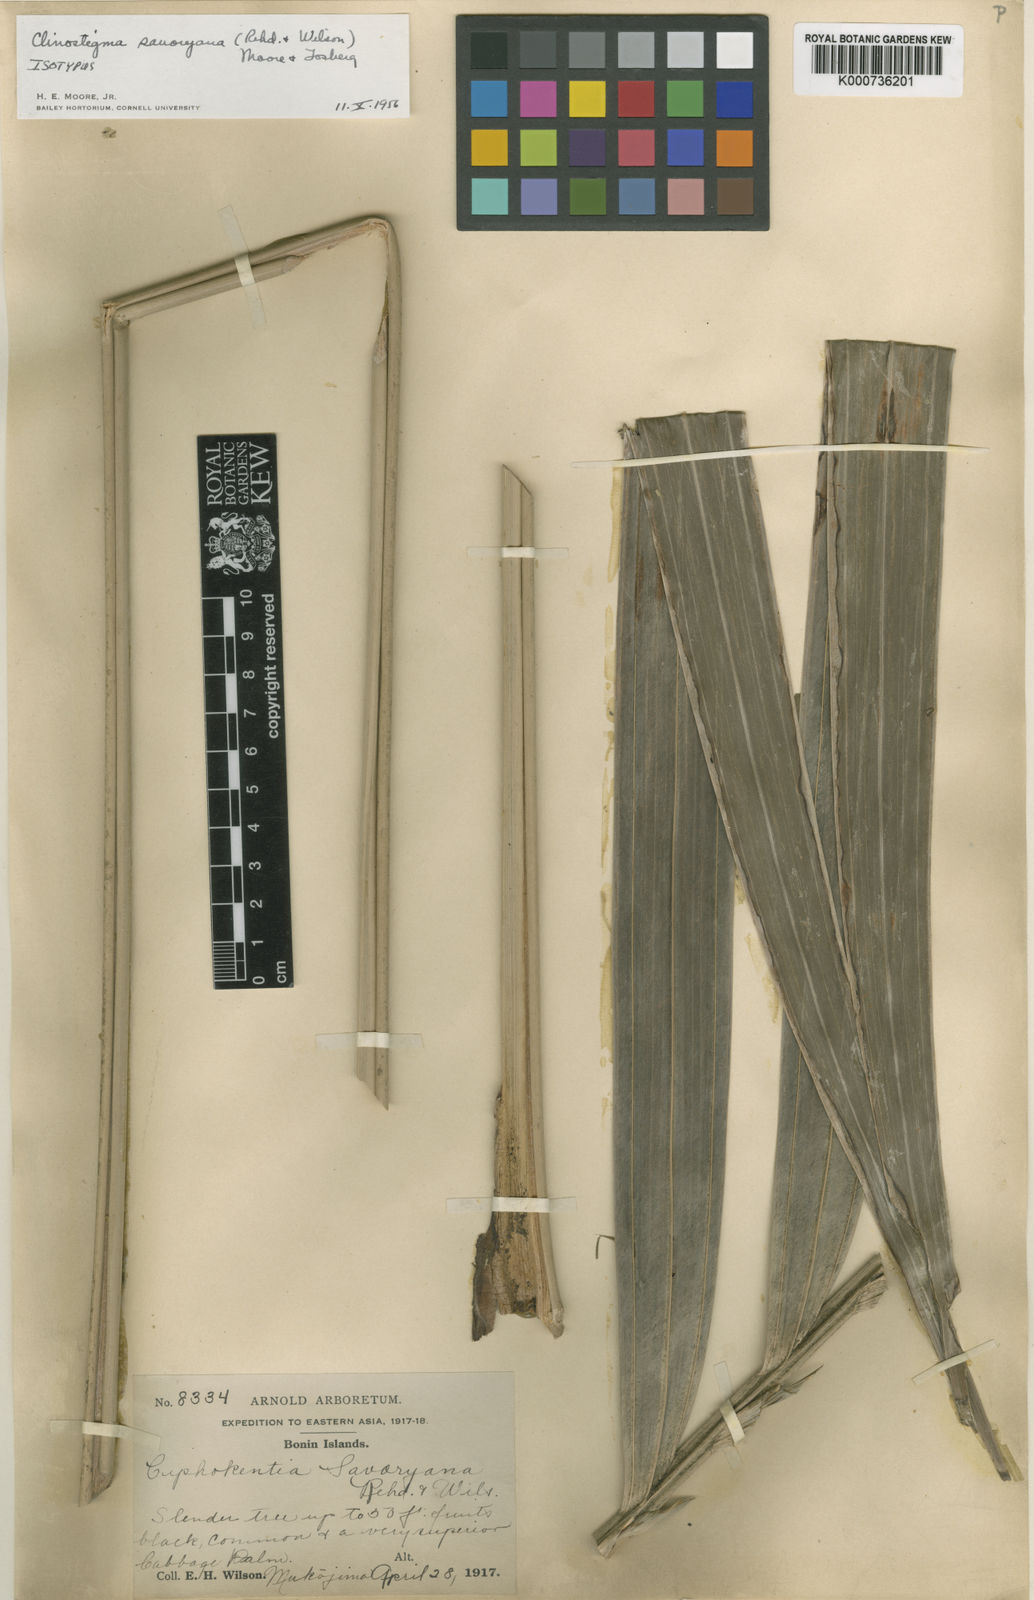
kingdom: Plantae
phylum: Tracheophyta
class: Liliopsida
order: Arecales
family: Arecaceae
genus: Clinostigma
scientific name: Clinostigma savoryanum
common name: Arrack tree
